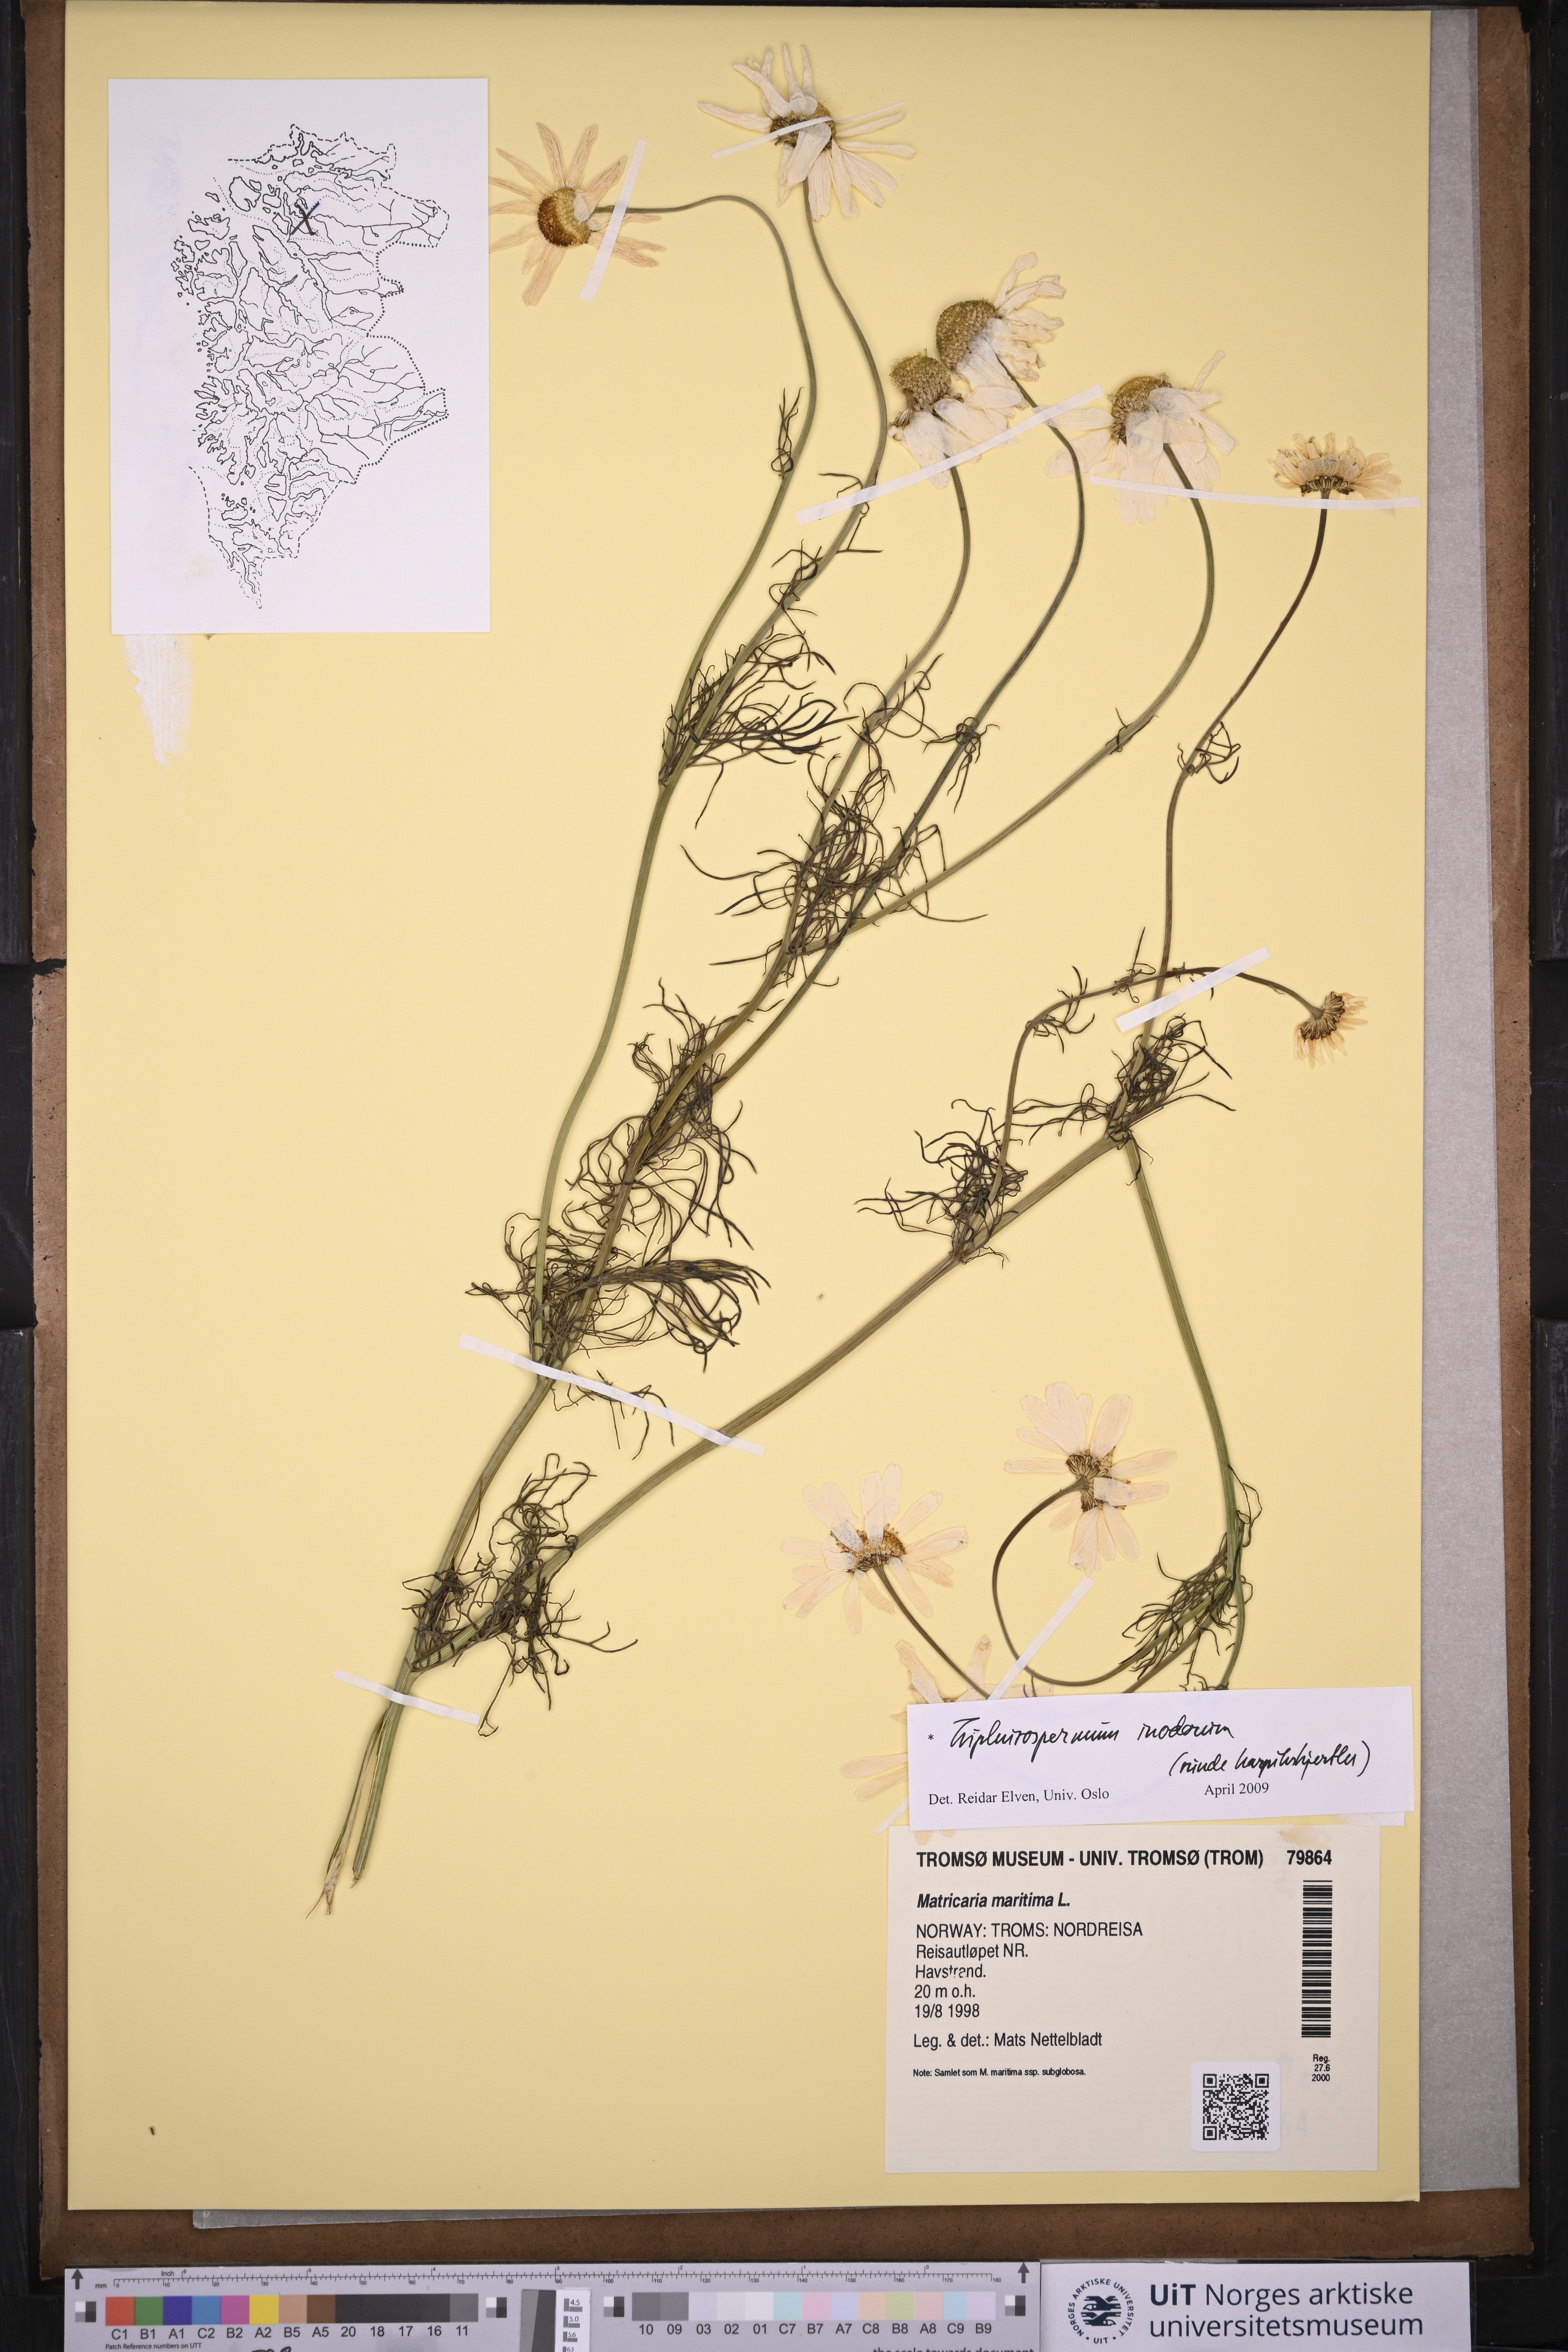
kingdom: Plantae
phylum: Tracheophyta
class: Magnoliopsida
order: Asterales
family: Asteraceae
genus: Tripleurospermum
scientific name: Tripleurospermum inodorum
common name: Scentless mayweed
